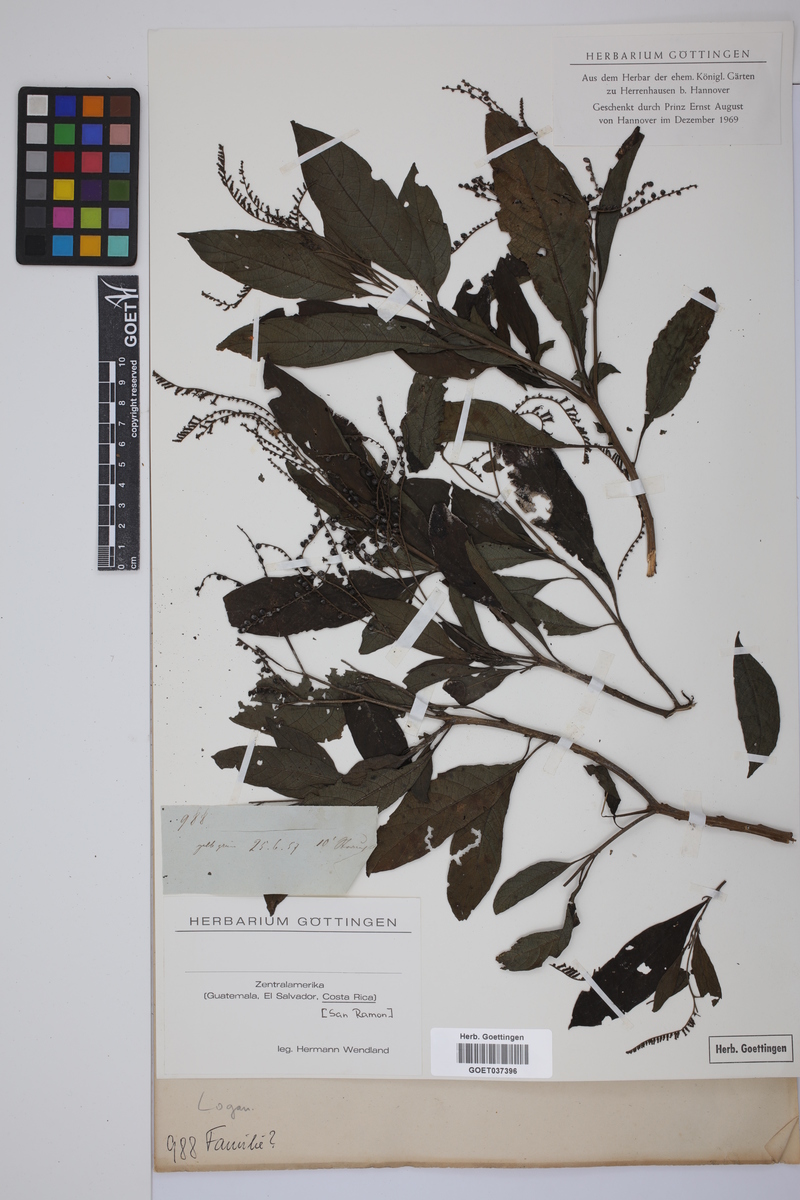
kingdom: Plantae
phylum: Tracheophyta
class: Magnoliopsida
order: Gentianales
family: Loganiaceae
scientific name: Loganiaceae
